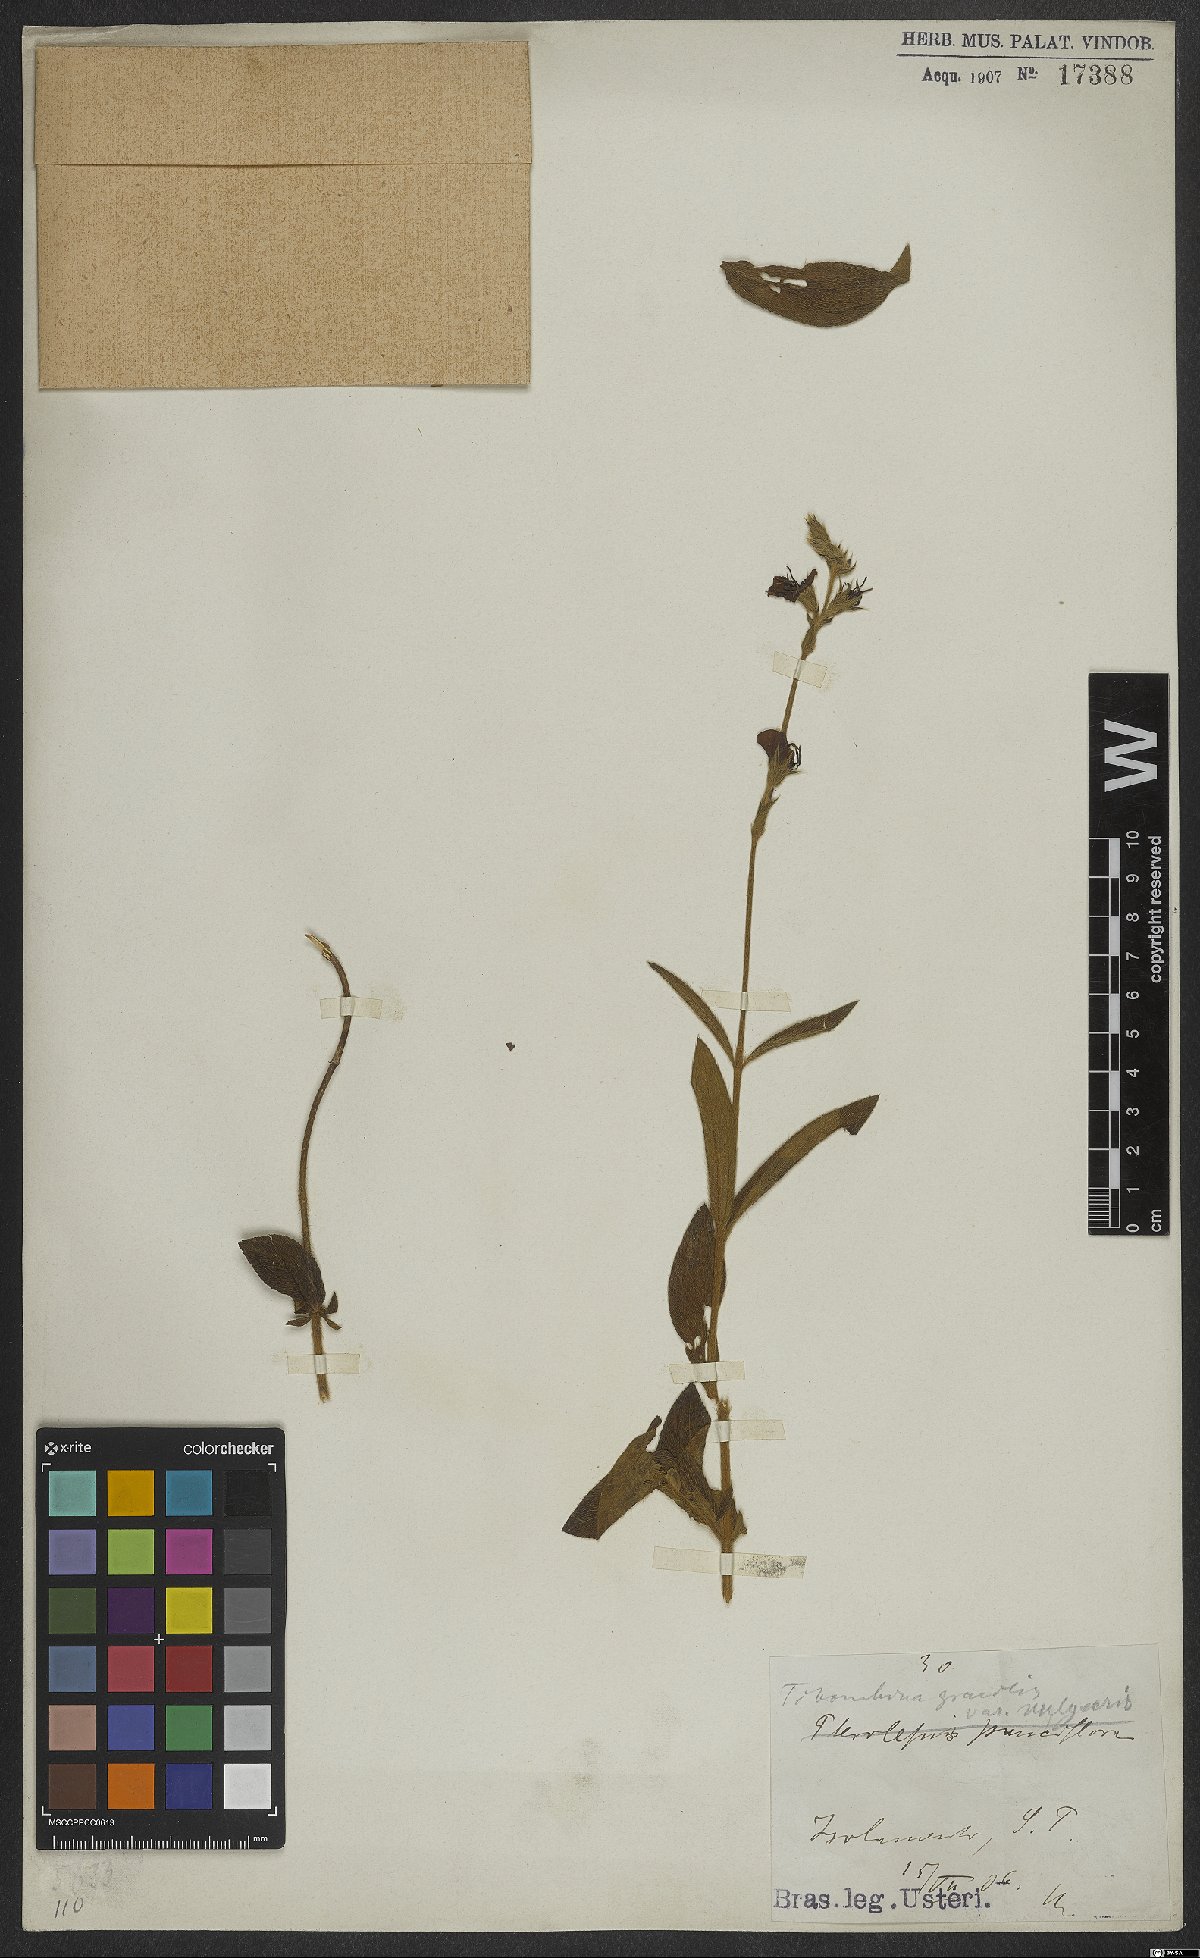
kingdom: Plantae
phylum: Tracheophyta
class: Magnoliopsida
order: Myrtales
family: Melastomataceae
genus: Chaetogastra
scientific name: Chaetogastra gracilis
